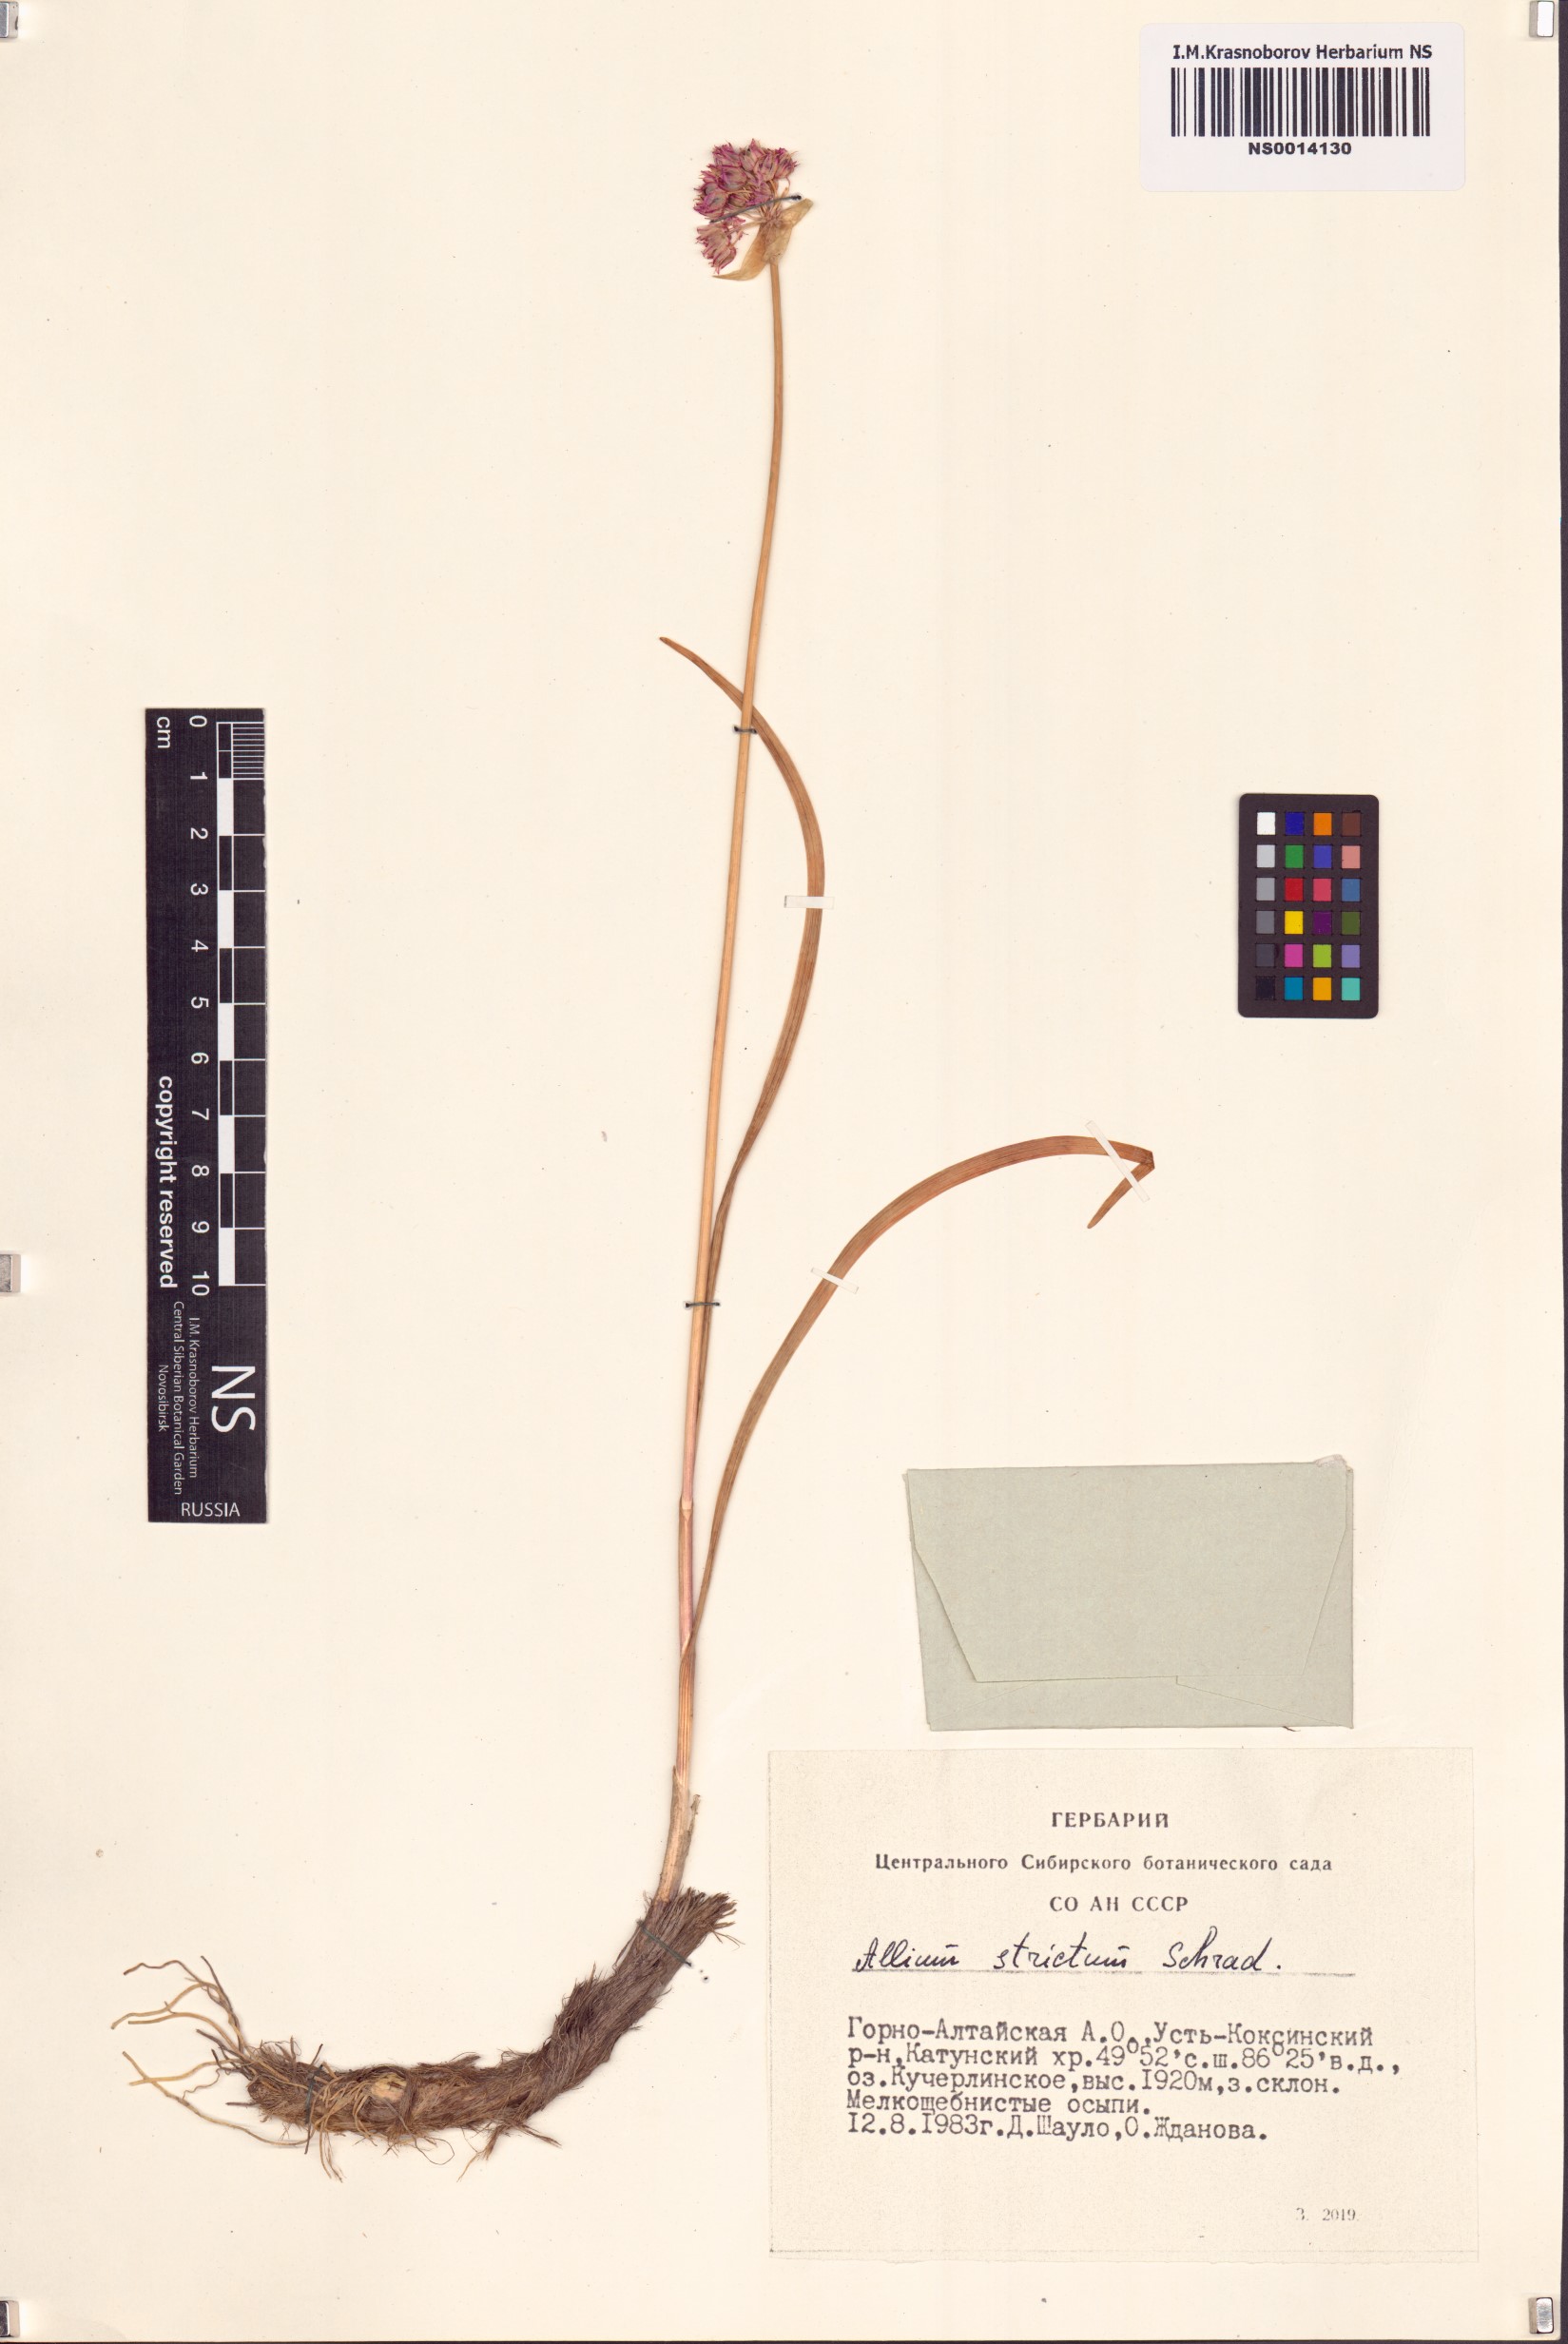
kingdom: Plantae
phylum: Tracheophyta
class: Liliopsida
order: Asparagales
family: Amaryllidaceae
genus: Allium
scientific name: Allium strictum
